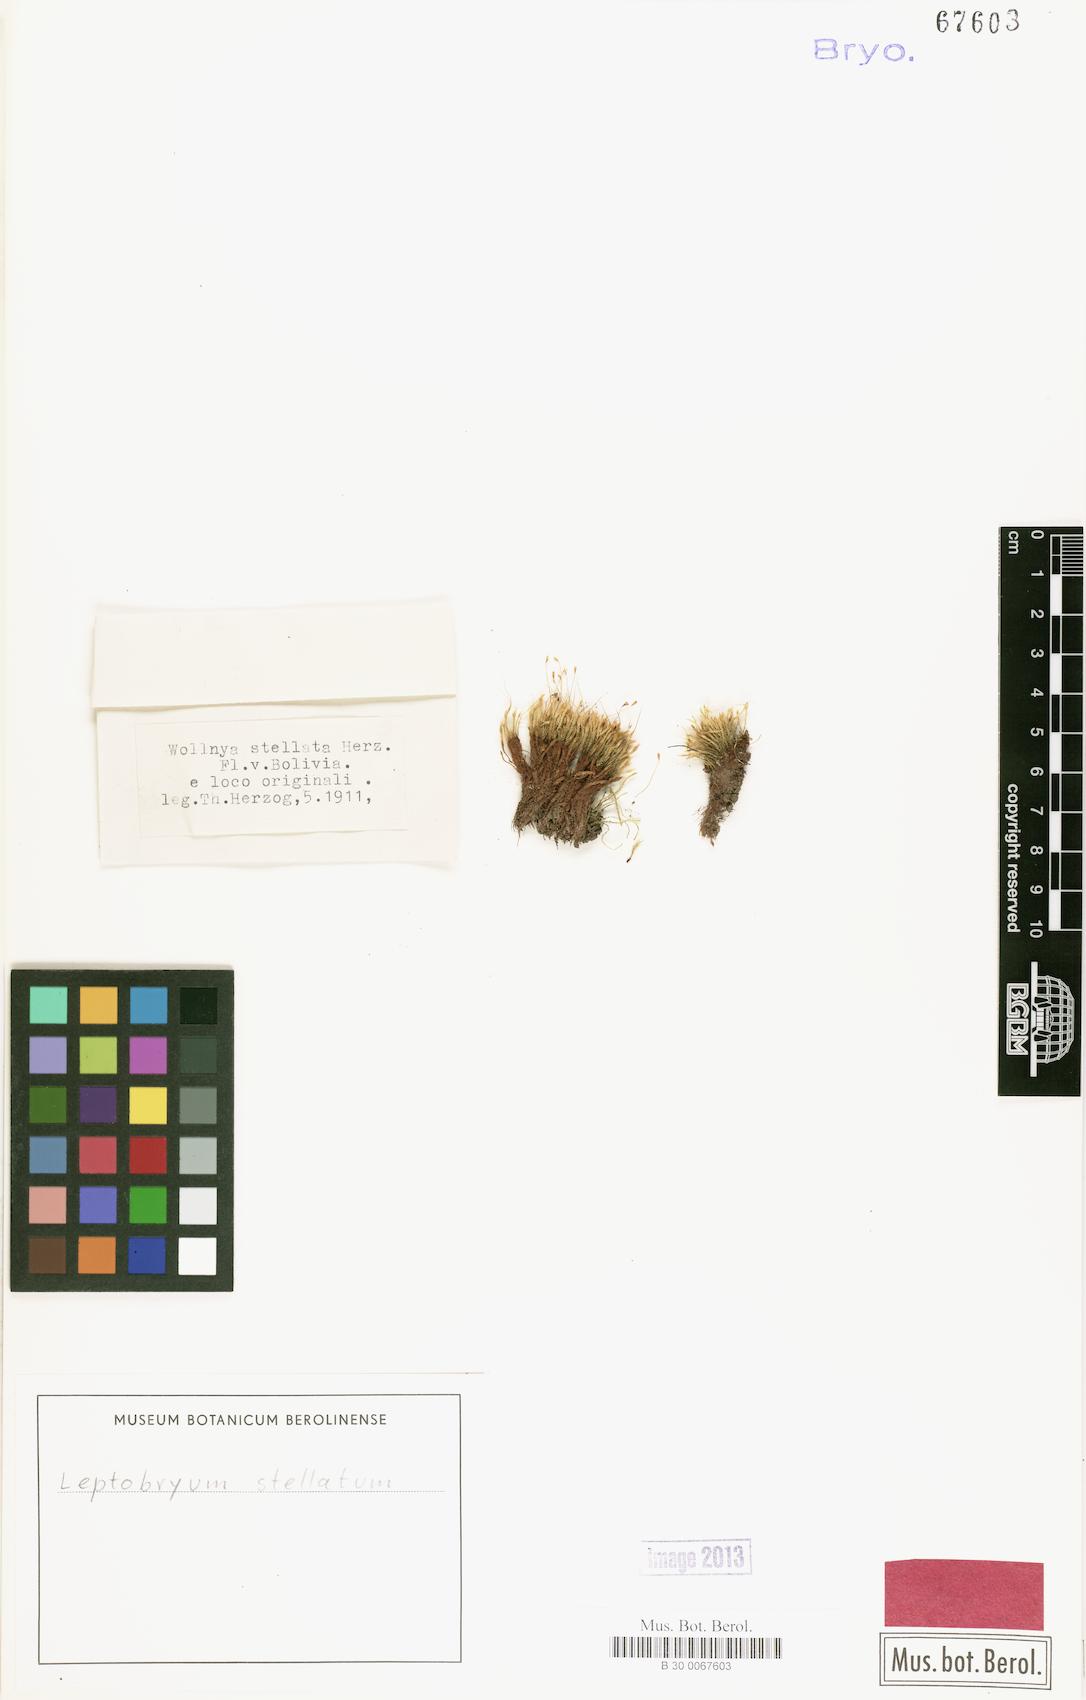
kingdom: Plantae
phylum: Bryophyta
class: Bryopsida
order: Bryales
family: Mniaceae
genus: Pohlia
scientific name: Pohlia wilsonii
